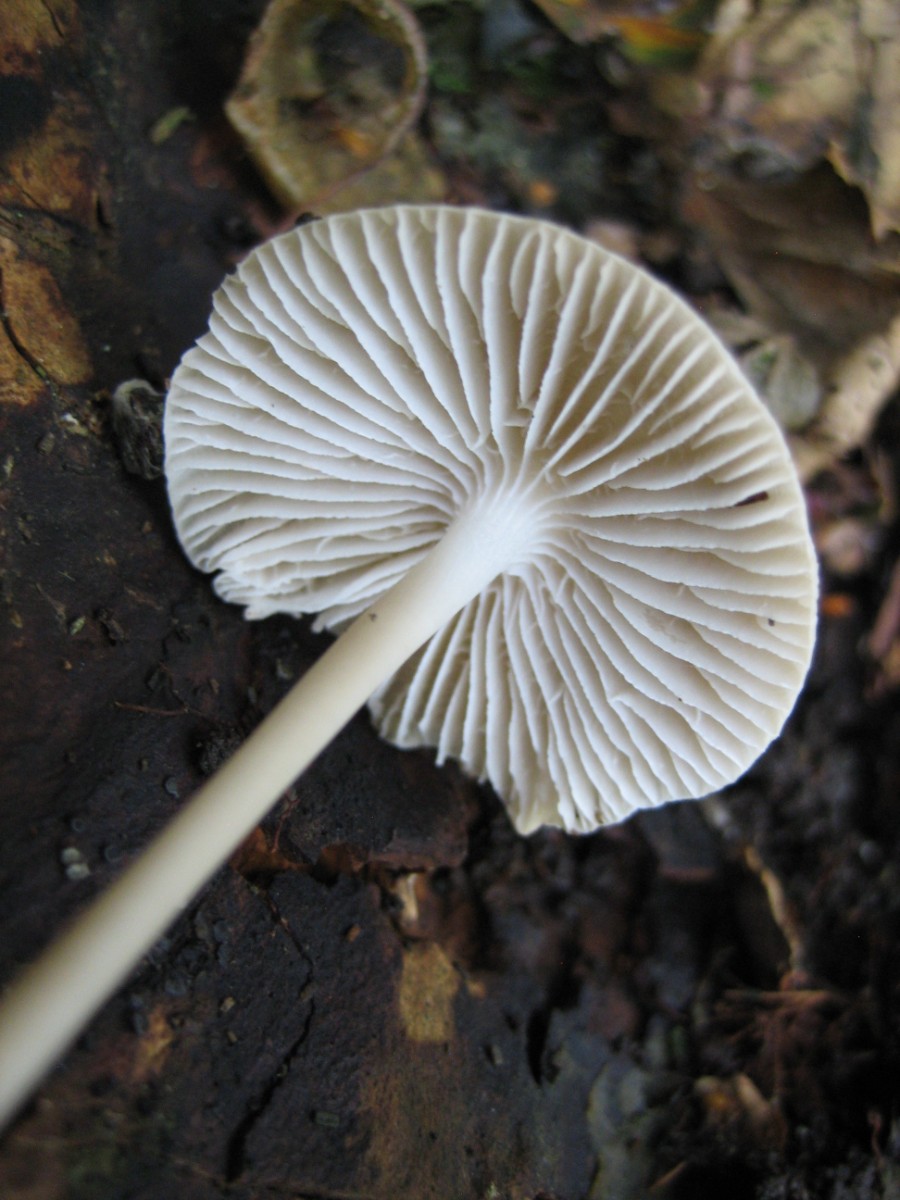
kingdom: Fungi
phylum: Basidiomycota
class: Agaricomycetes
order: Agaricales
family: Mycenaceae
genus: Mycena
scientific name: Mycena galericulata
